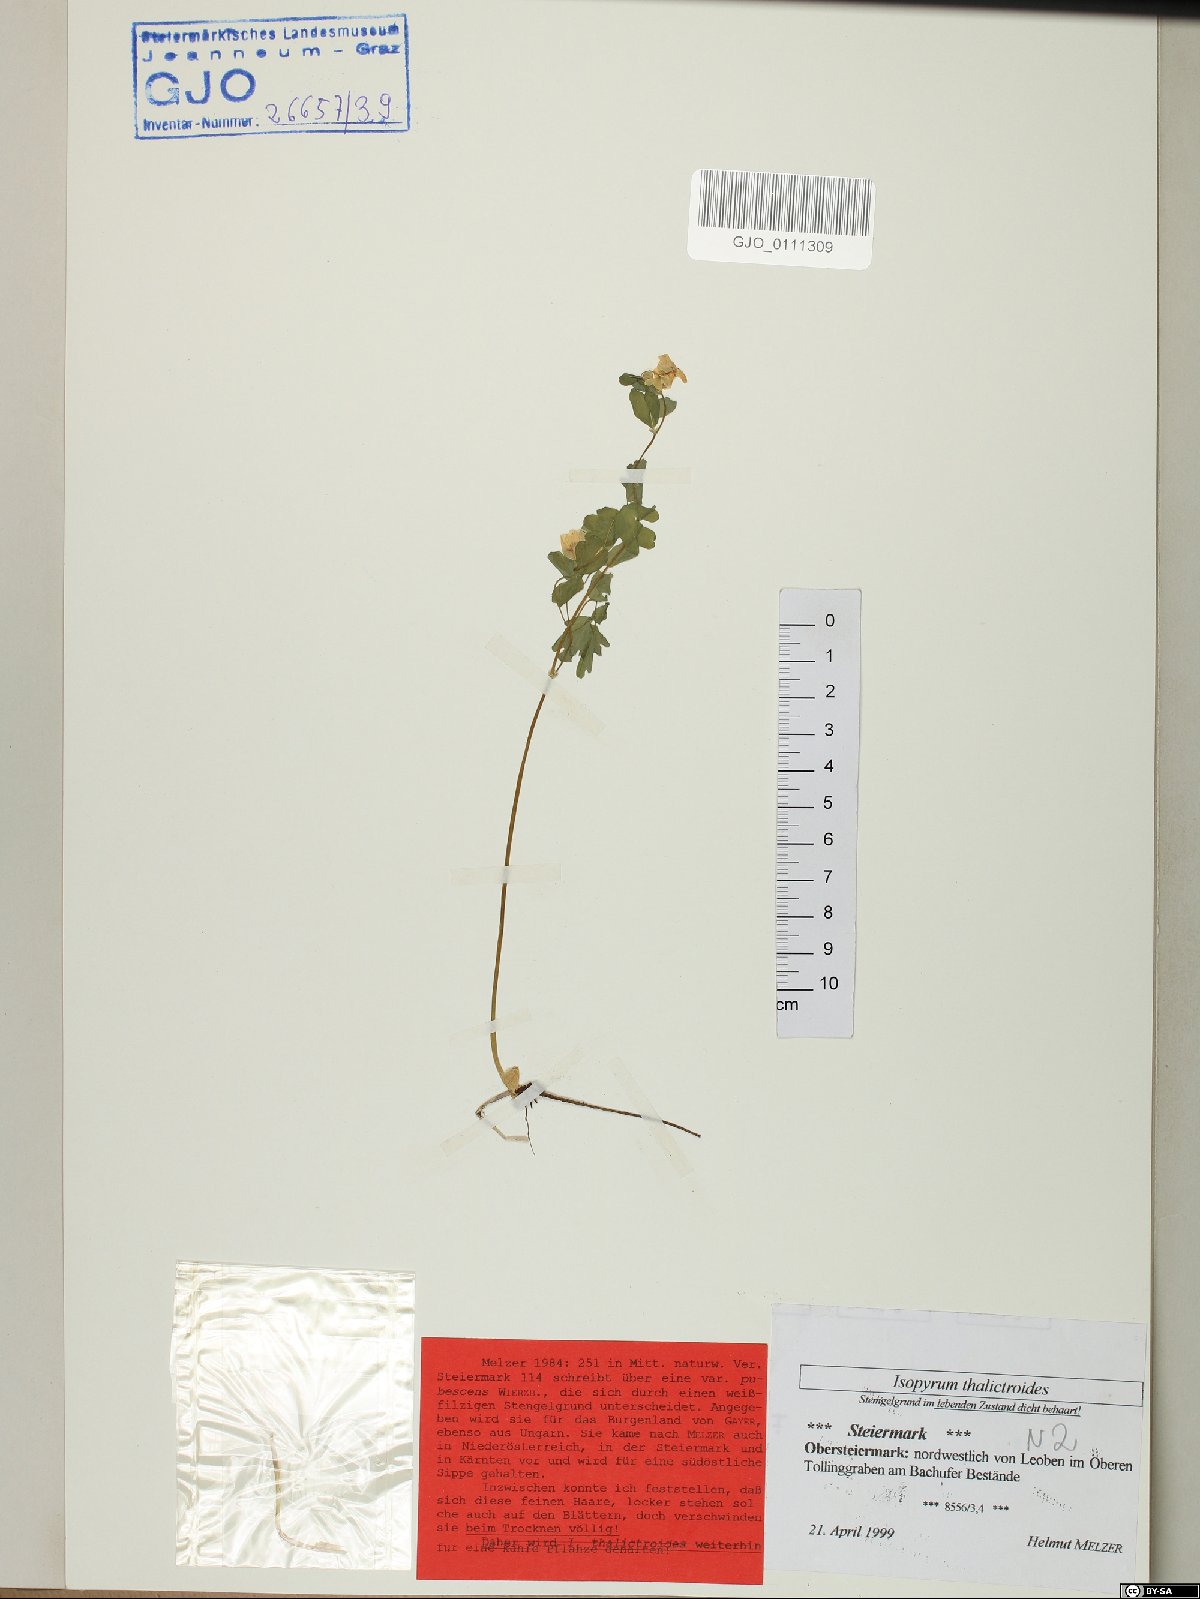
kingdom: Plantae
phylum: Tracheophyta
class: Magnoliopsida
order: Ranunculales
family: Ranunculaceae
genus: Isopyrum
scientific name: Isopyrum thalictroides
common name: Isopyrum
